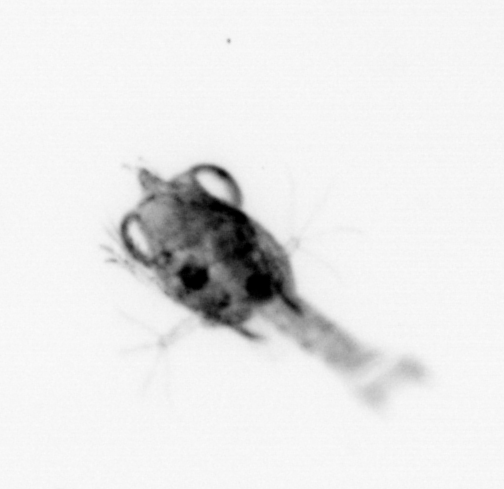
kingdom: Animalia
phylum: Arthropoda
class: Malacostraca
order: Decapoda
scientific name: Decapoda
